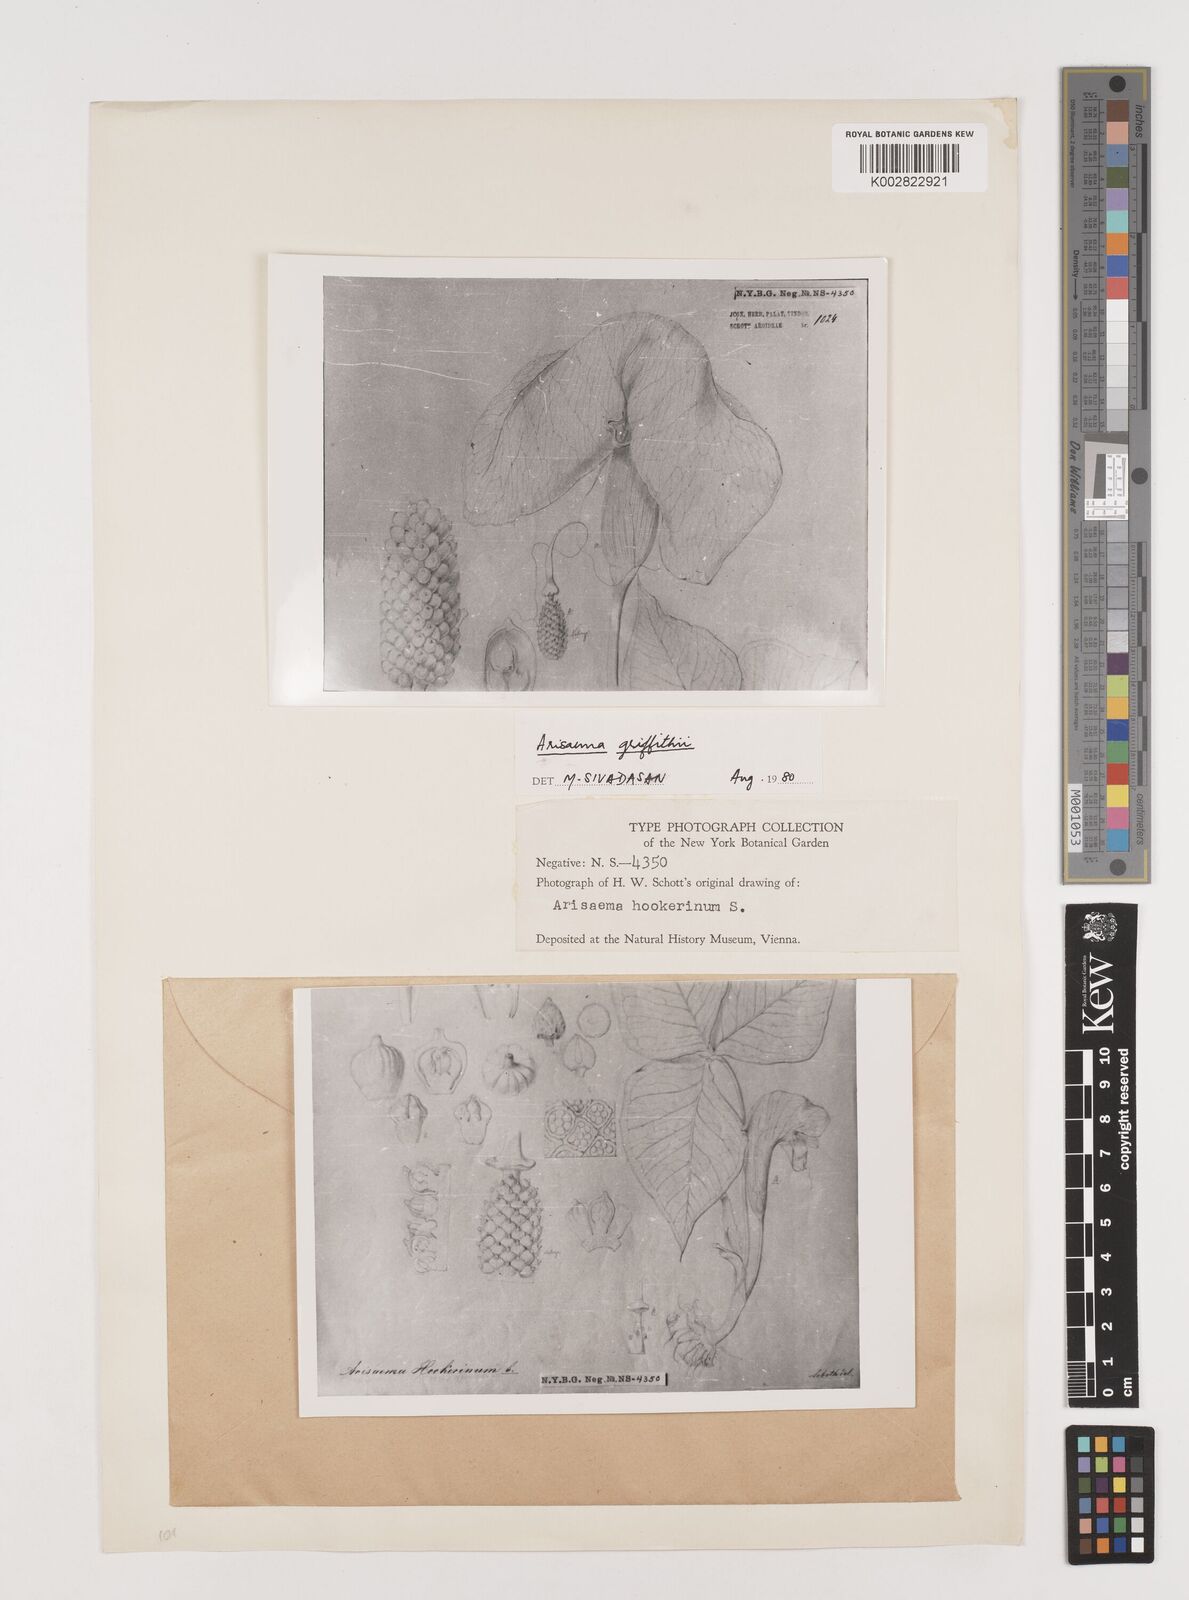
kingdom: Plantae
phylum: Tracheophyta
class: Liliopsida
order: Alismatales
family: Araceae
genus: Arisaema
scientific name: Arisaema griffithii
